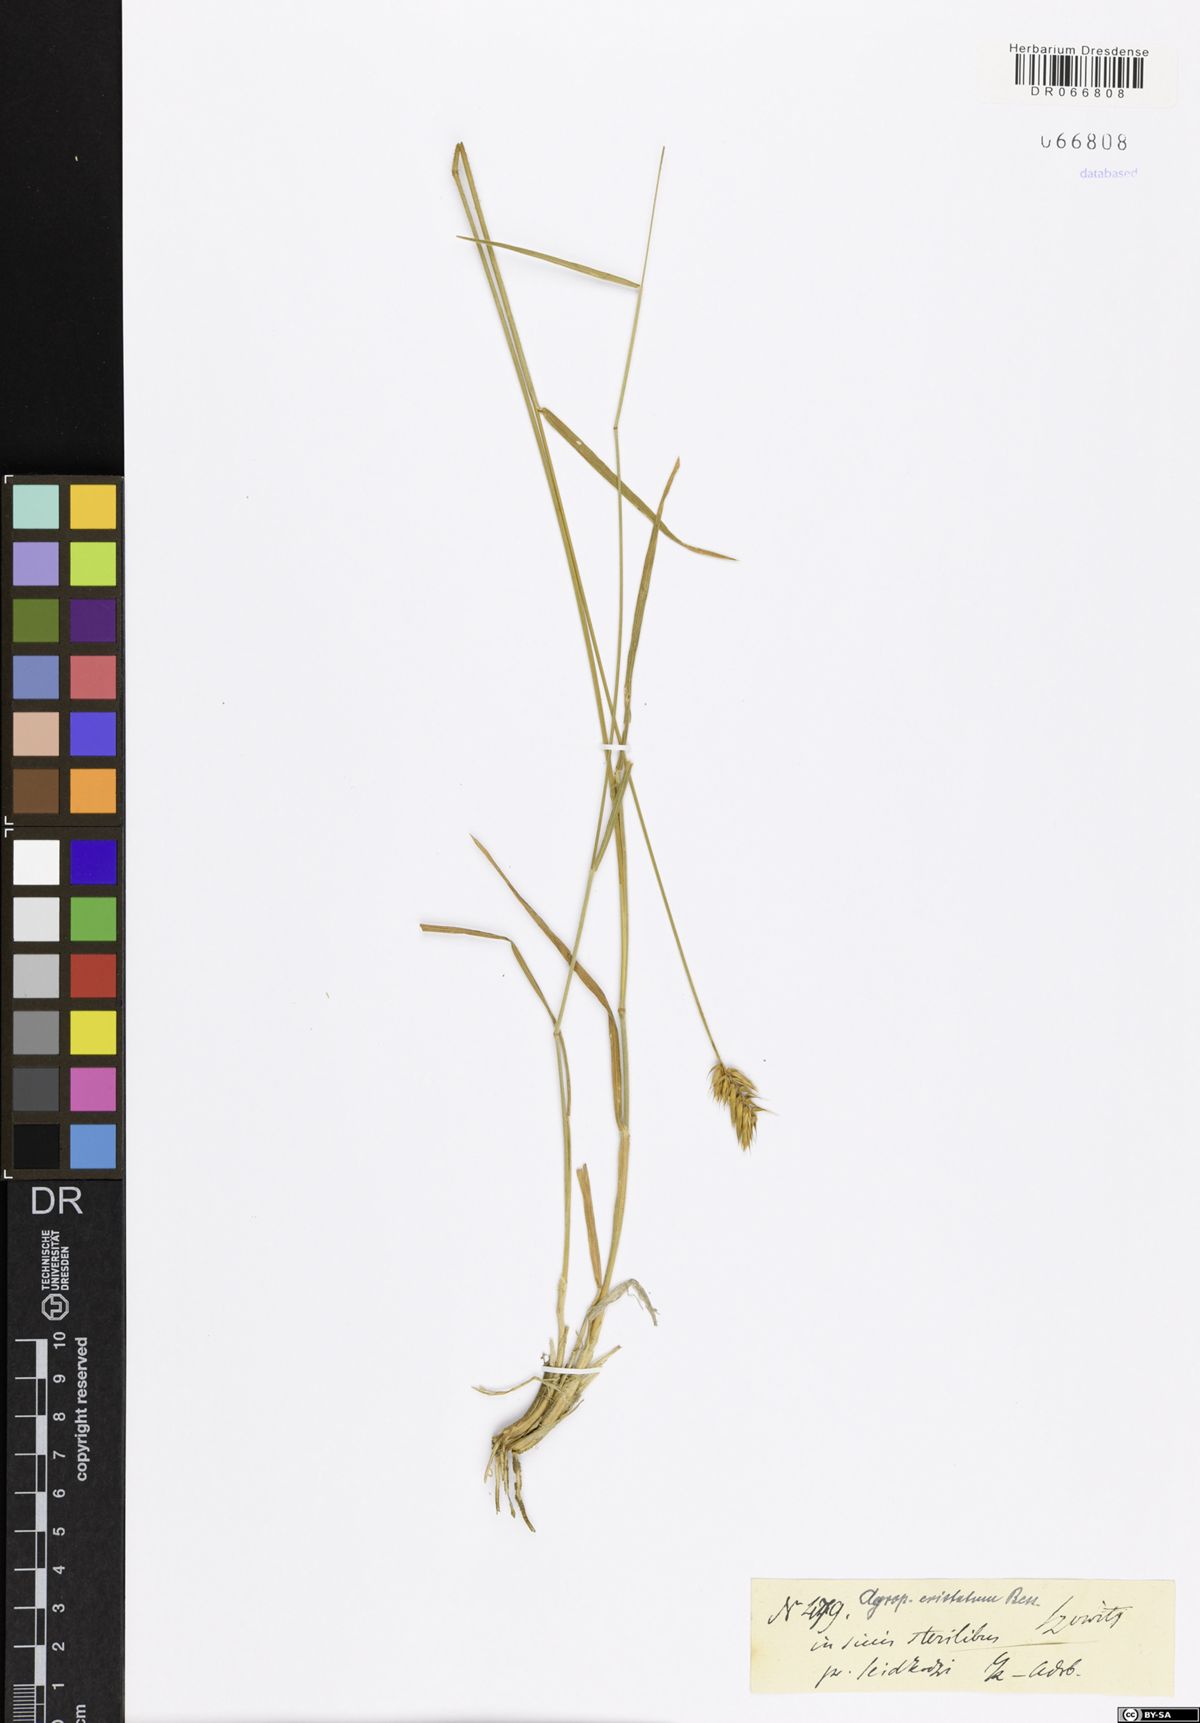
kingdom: Plantae
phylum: Tracheophyta
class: Liliopsida
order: Poales
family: Poaceae
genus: Agropyron
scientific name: Agropyron cristatum
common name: Crested wheatgrass
